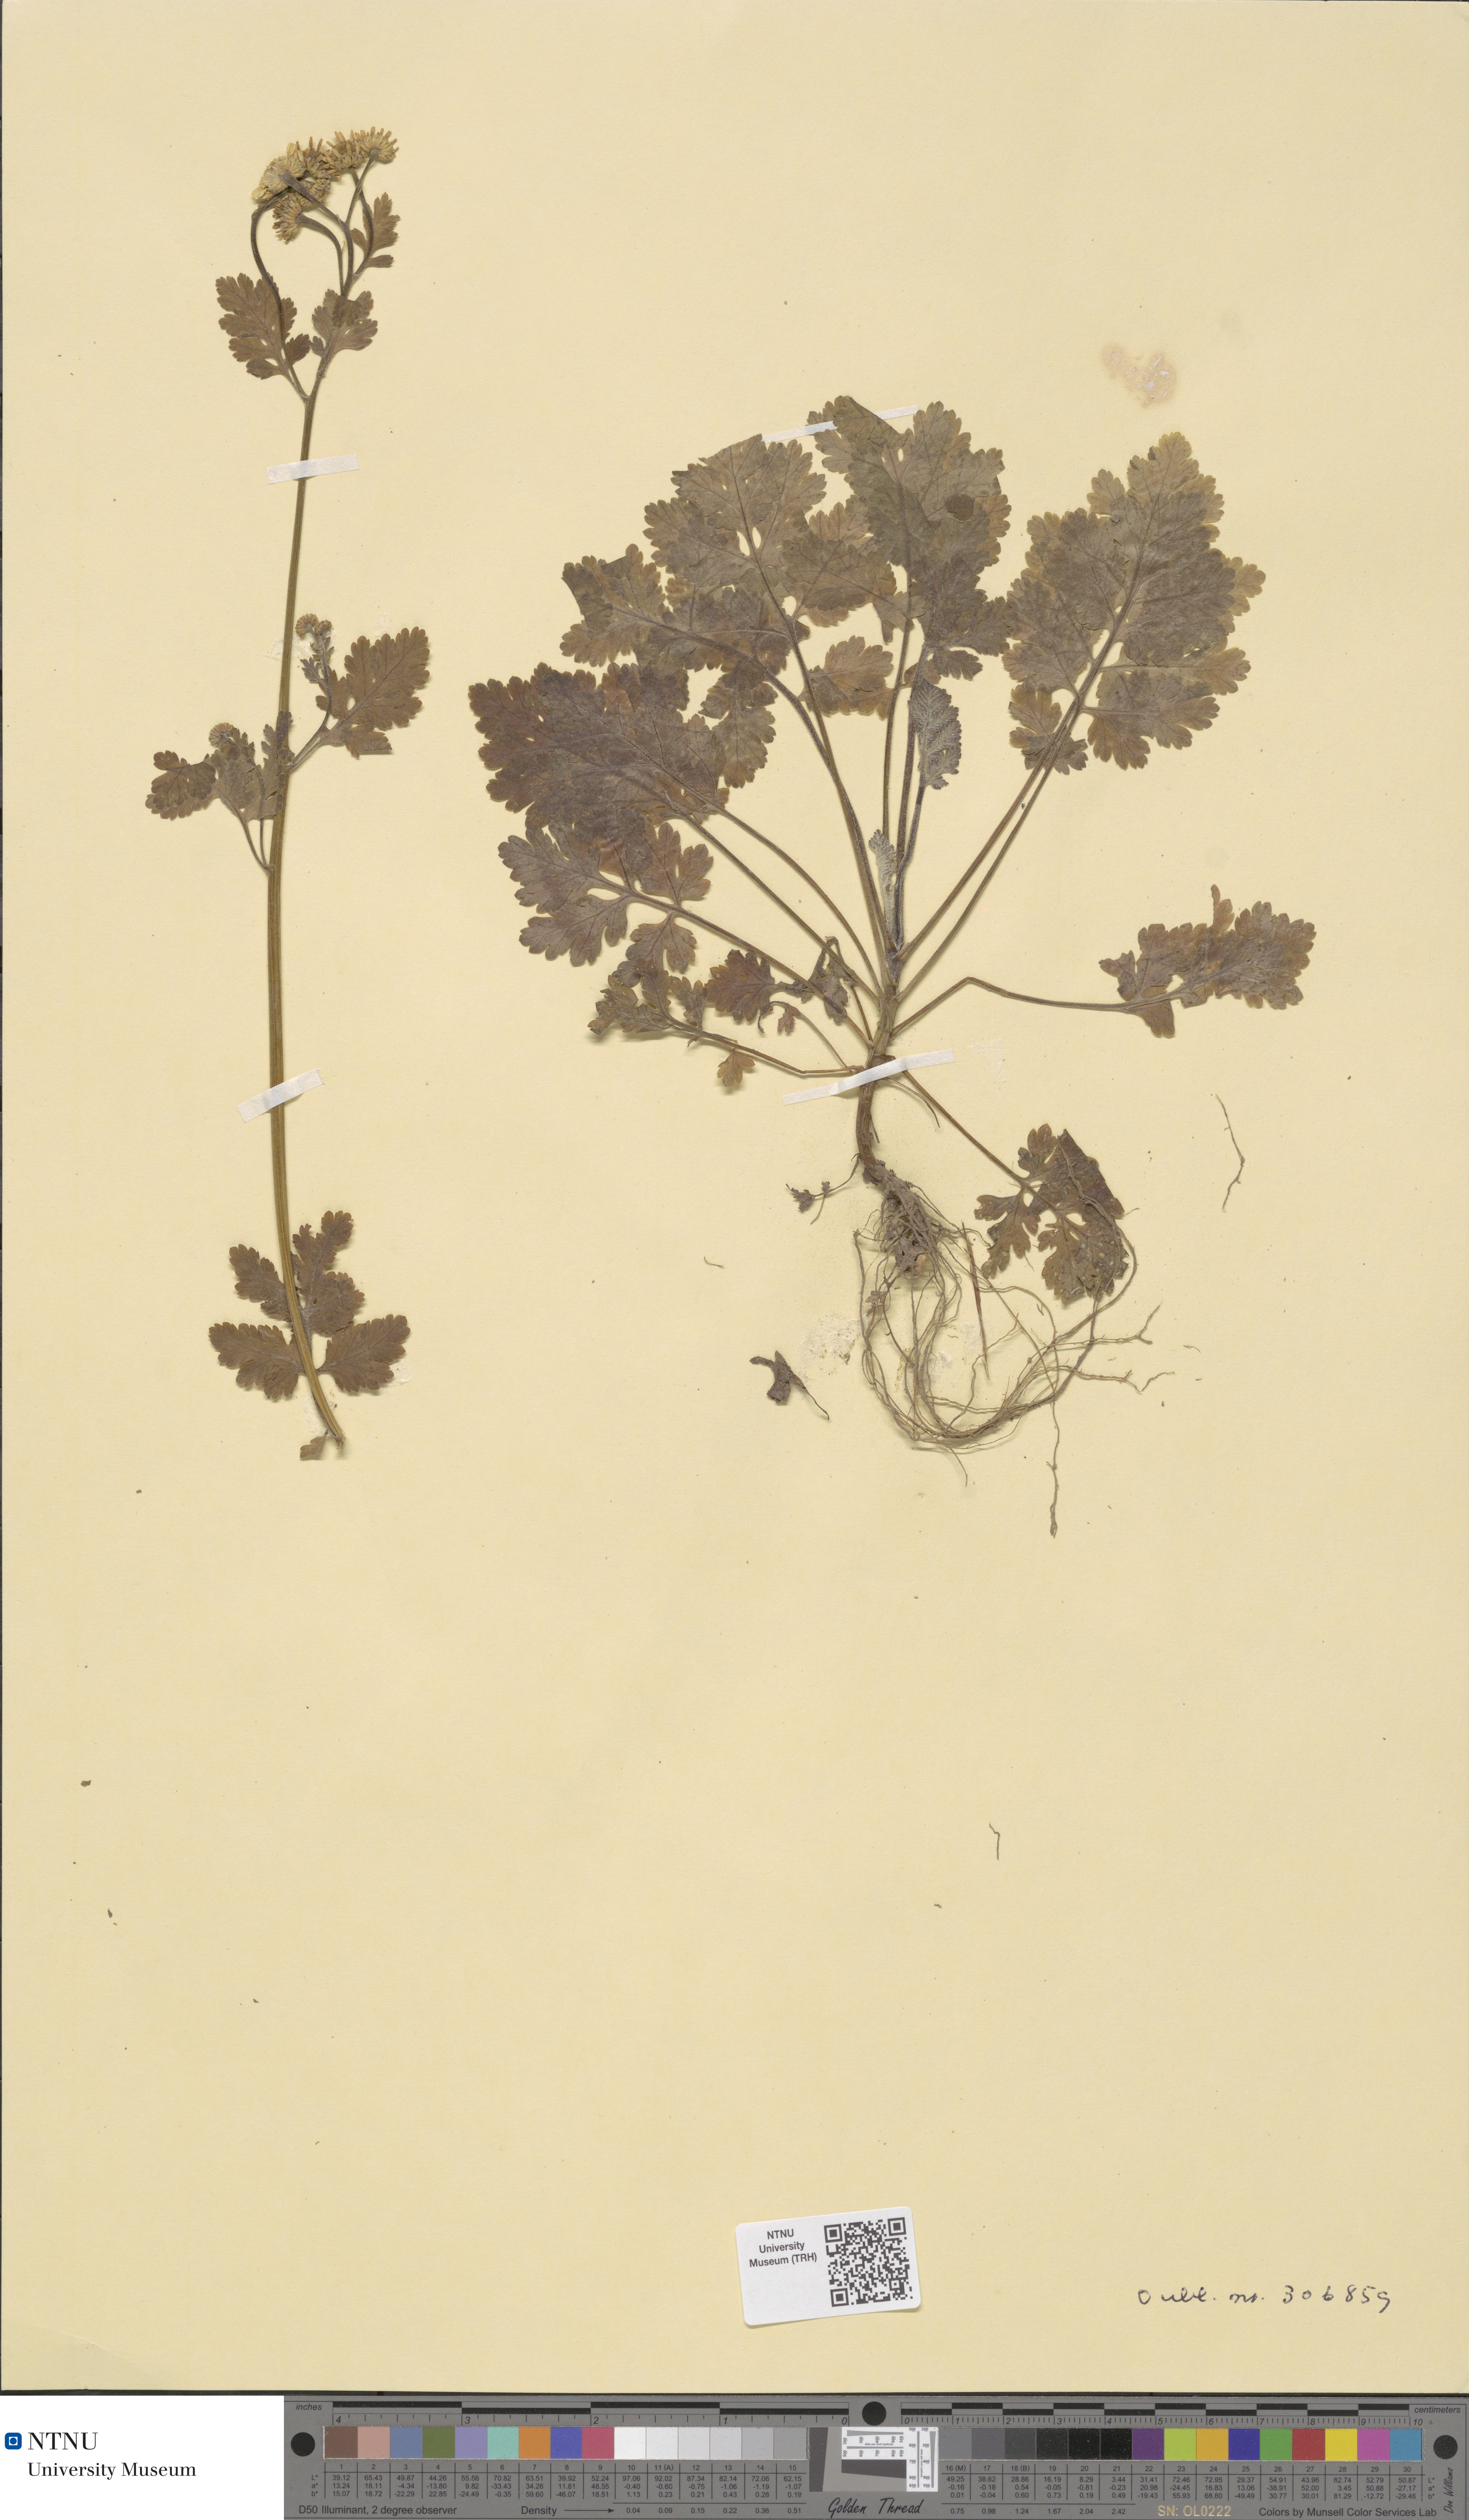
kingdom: Plantae
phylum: Tracheophyta
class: Magnoliopsida
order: Asterales
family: Asteraceae
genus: Tanacetum
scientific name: Tanacetum parthenium
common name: Feverfew
